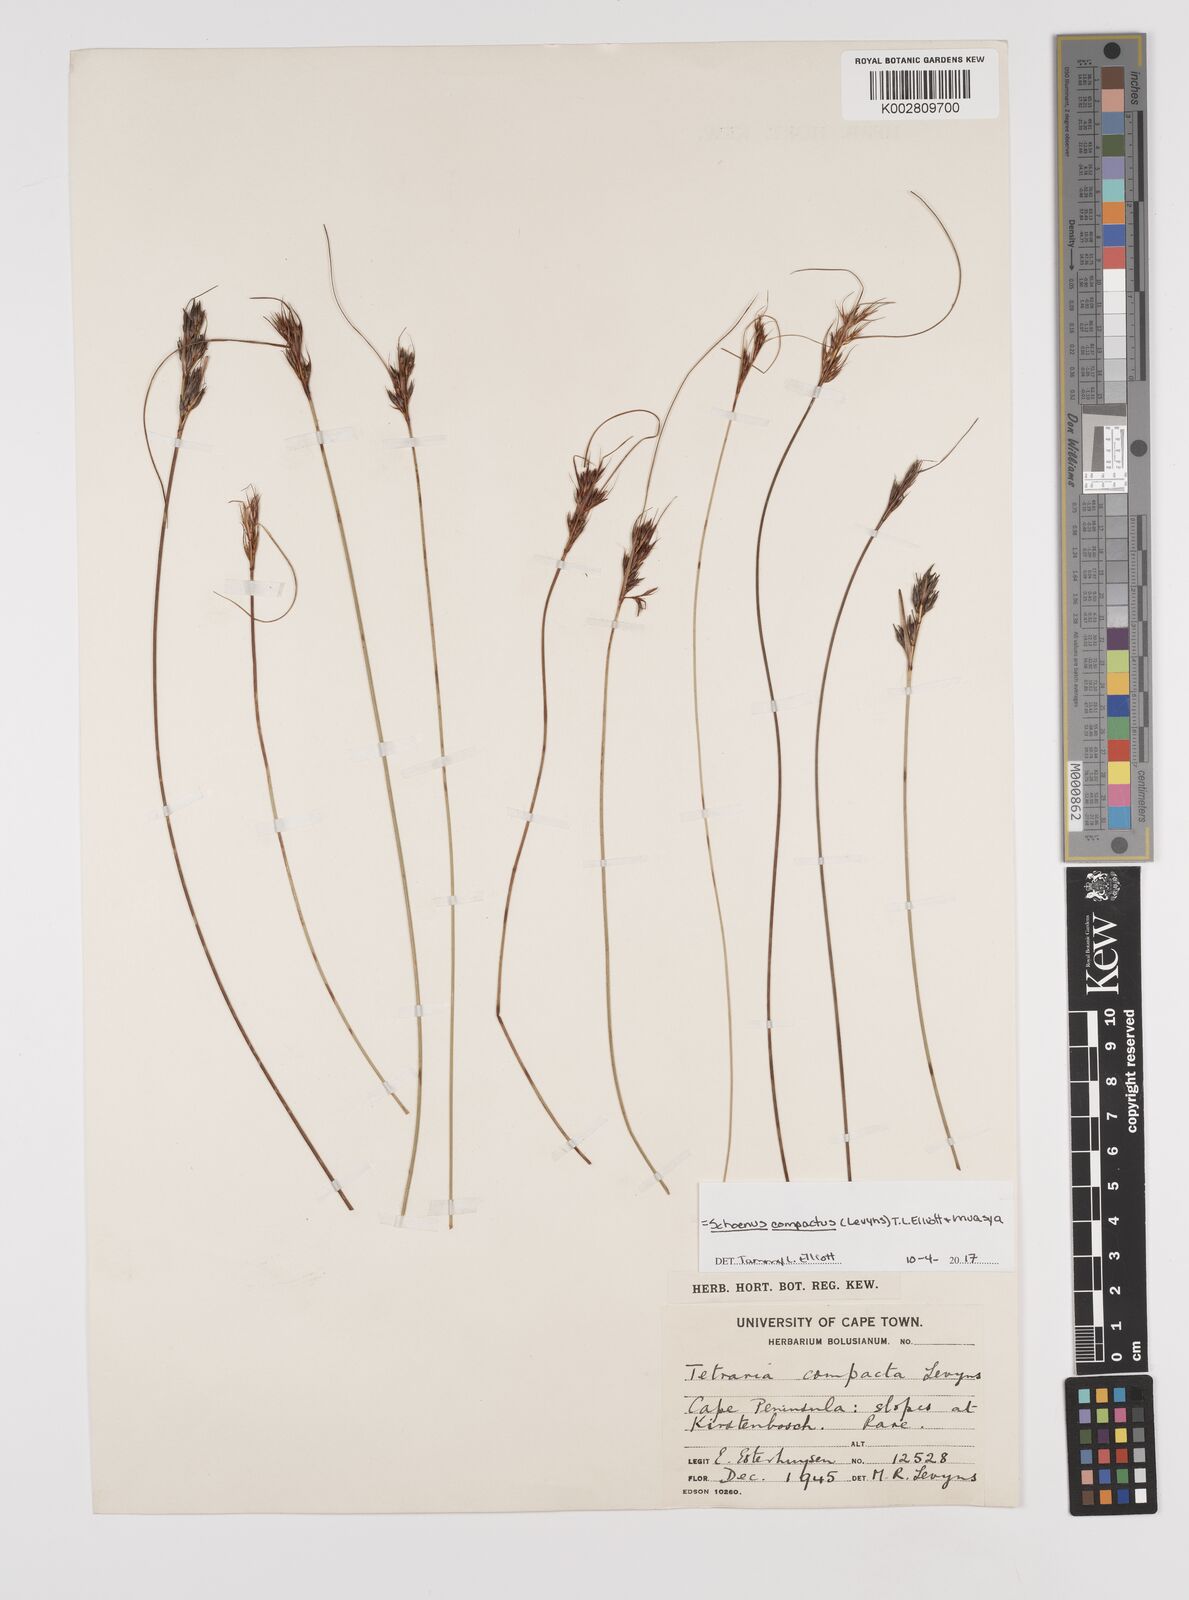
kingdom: Plantae
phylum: Tracheophyta
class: Liliopsida
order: Poales
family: Cyperaceae
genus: Schoenus
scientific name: Schoenus compactus
